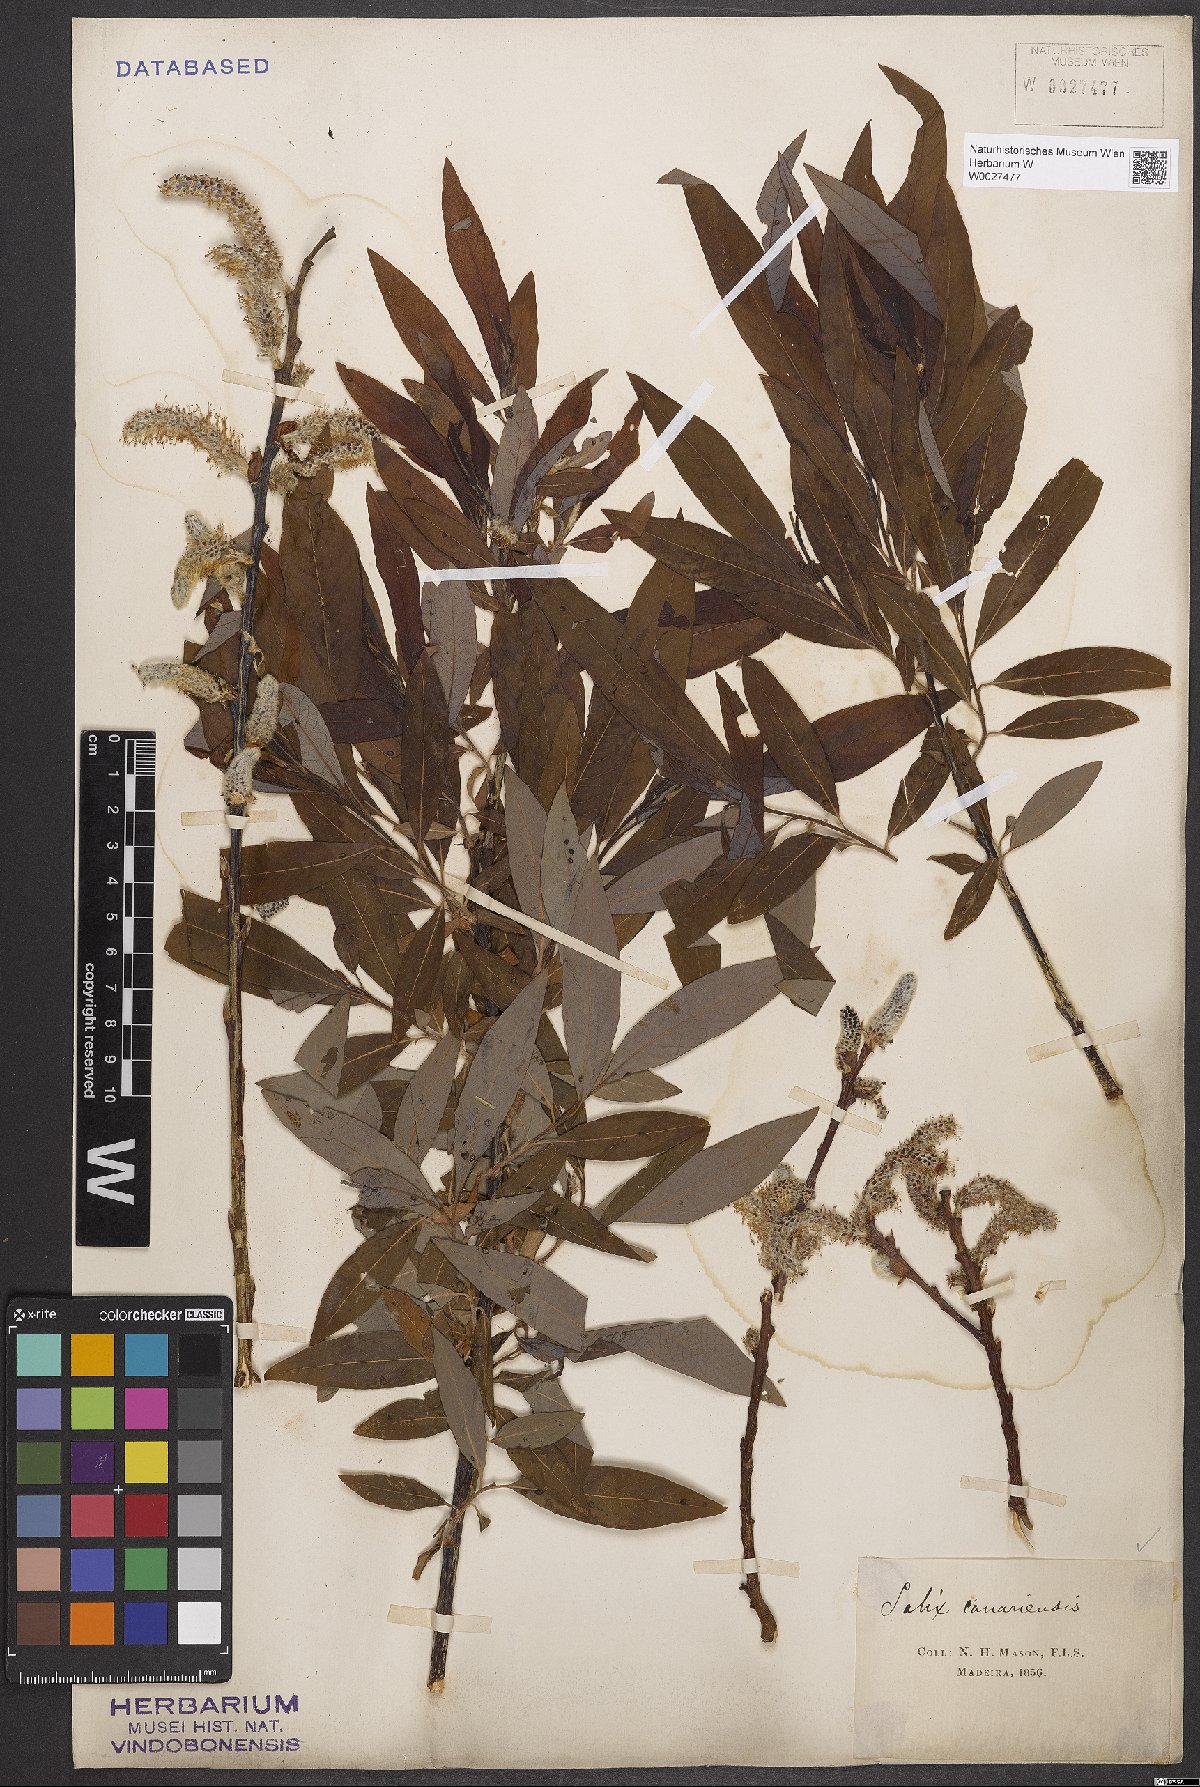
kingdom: Plantae
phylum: Tracheophyta
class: Magnoliopsida
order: Malpighiales
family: Salicaceae
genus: Salix
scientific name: Salix canariensis
